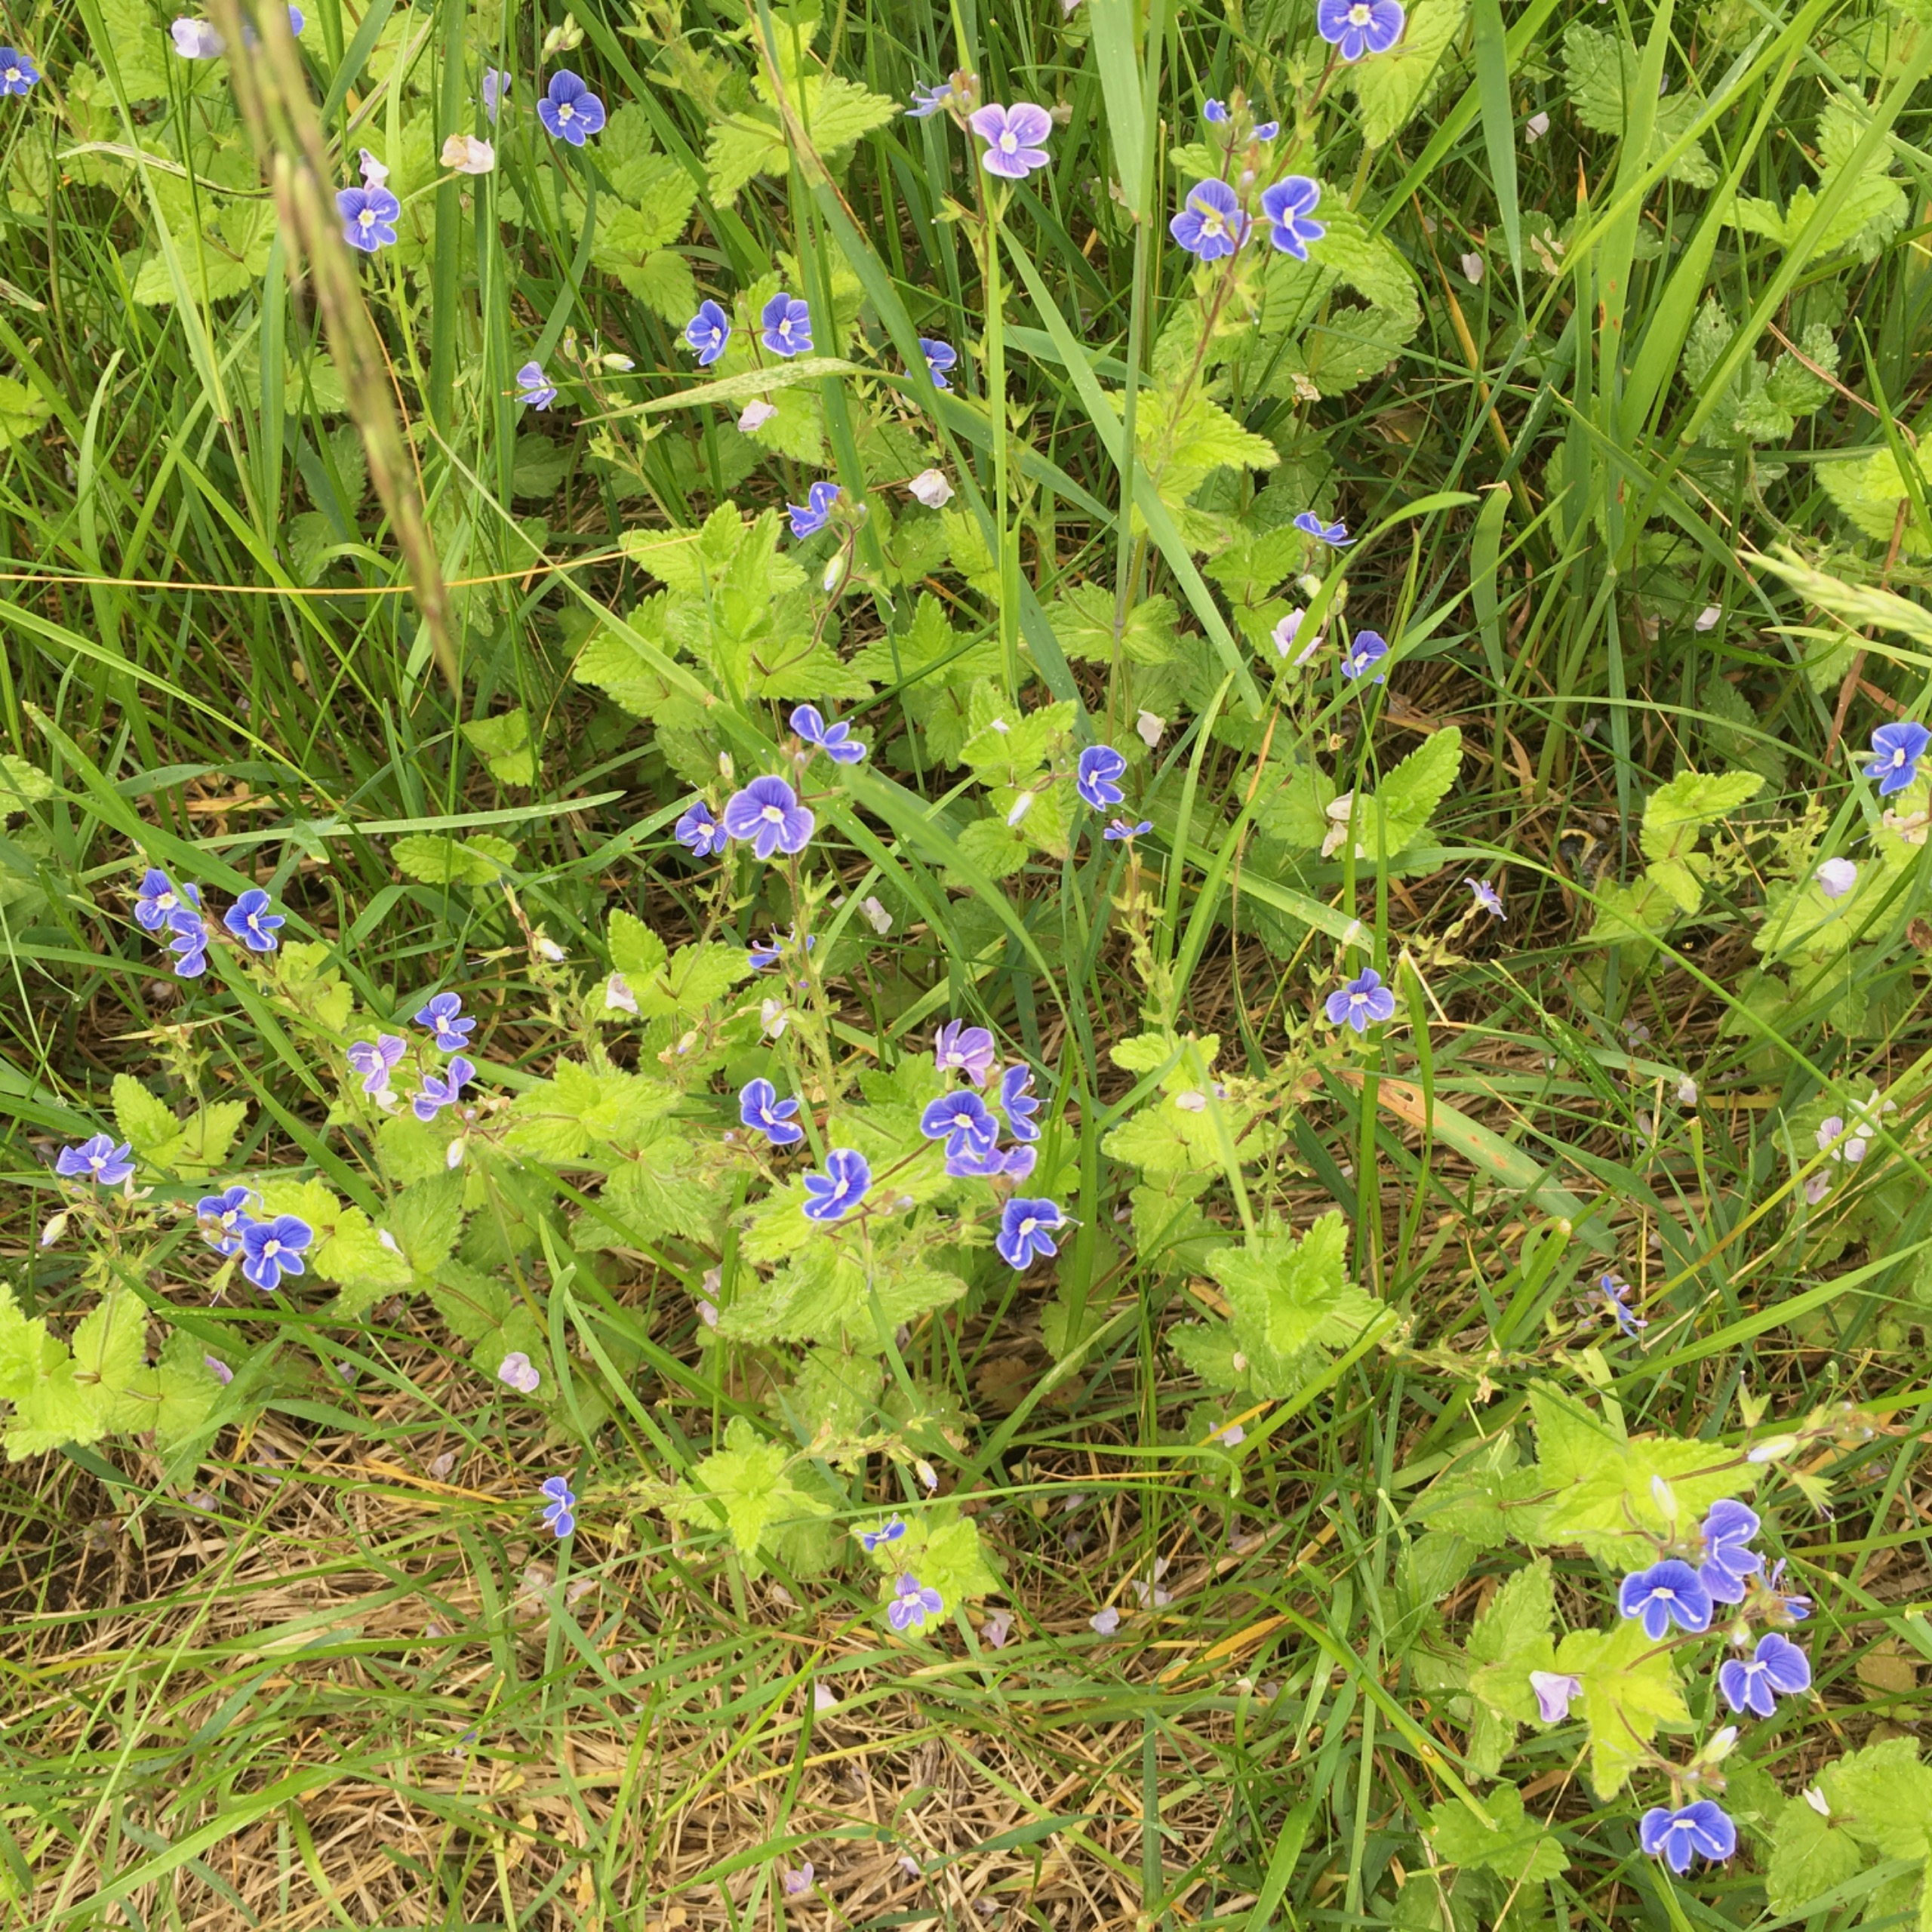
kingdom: Plantae
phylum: Tracheophyta
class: Magnoliopsida
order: Lamiales
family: Plantaginaceae
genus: Veronica
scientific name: Veronica chamaedrys
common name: Tveskægget ærenpris
